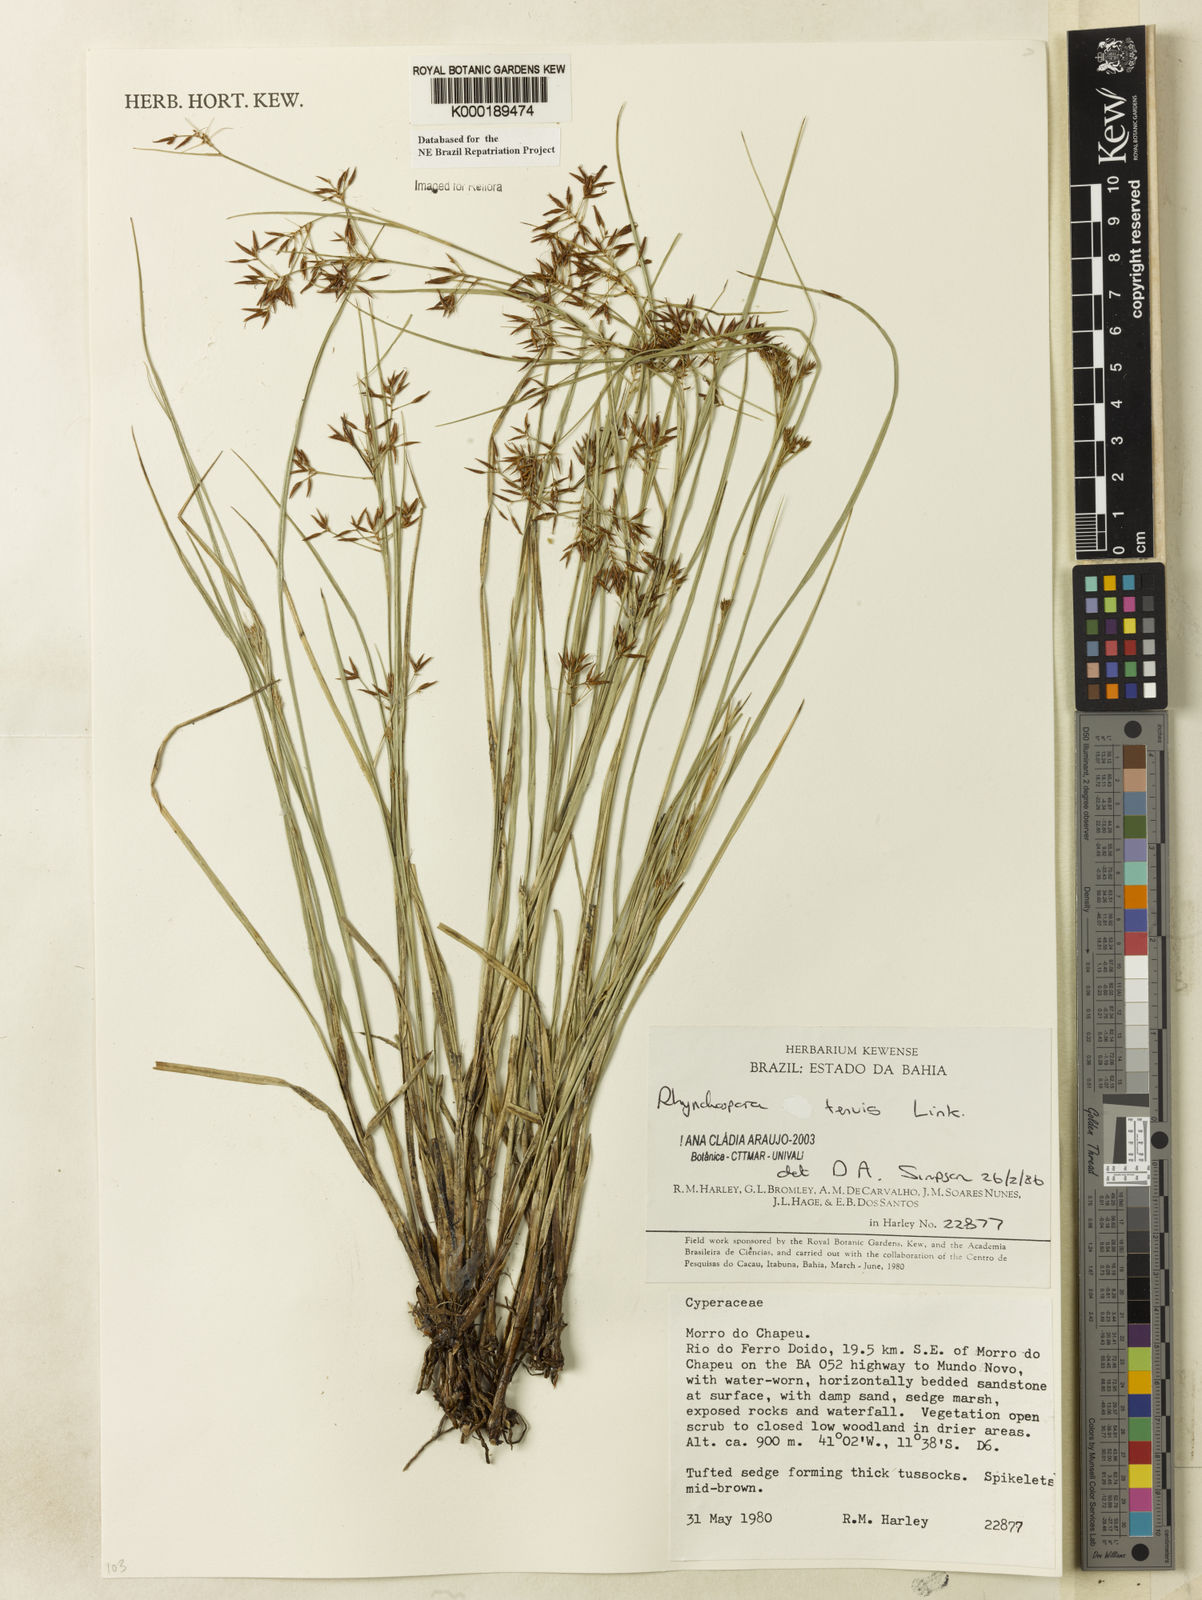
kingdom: Plantae
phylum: Tracheophyta
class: Liliopsida
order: Poales
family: Cyperaceae
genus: Rhynchospora
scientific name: Rhynchospora tenuis
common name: Quill beaksedge
